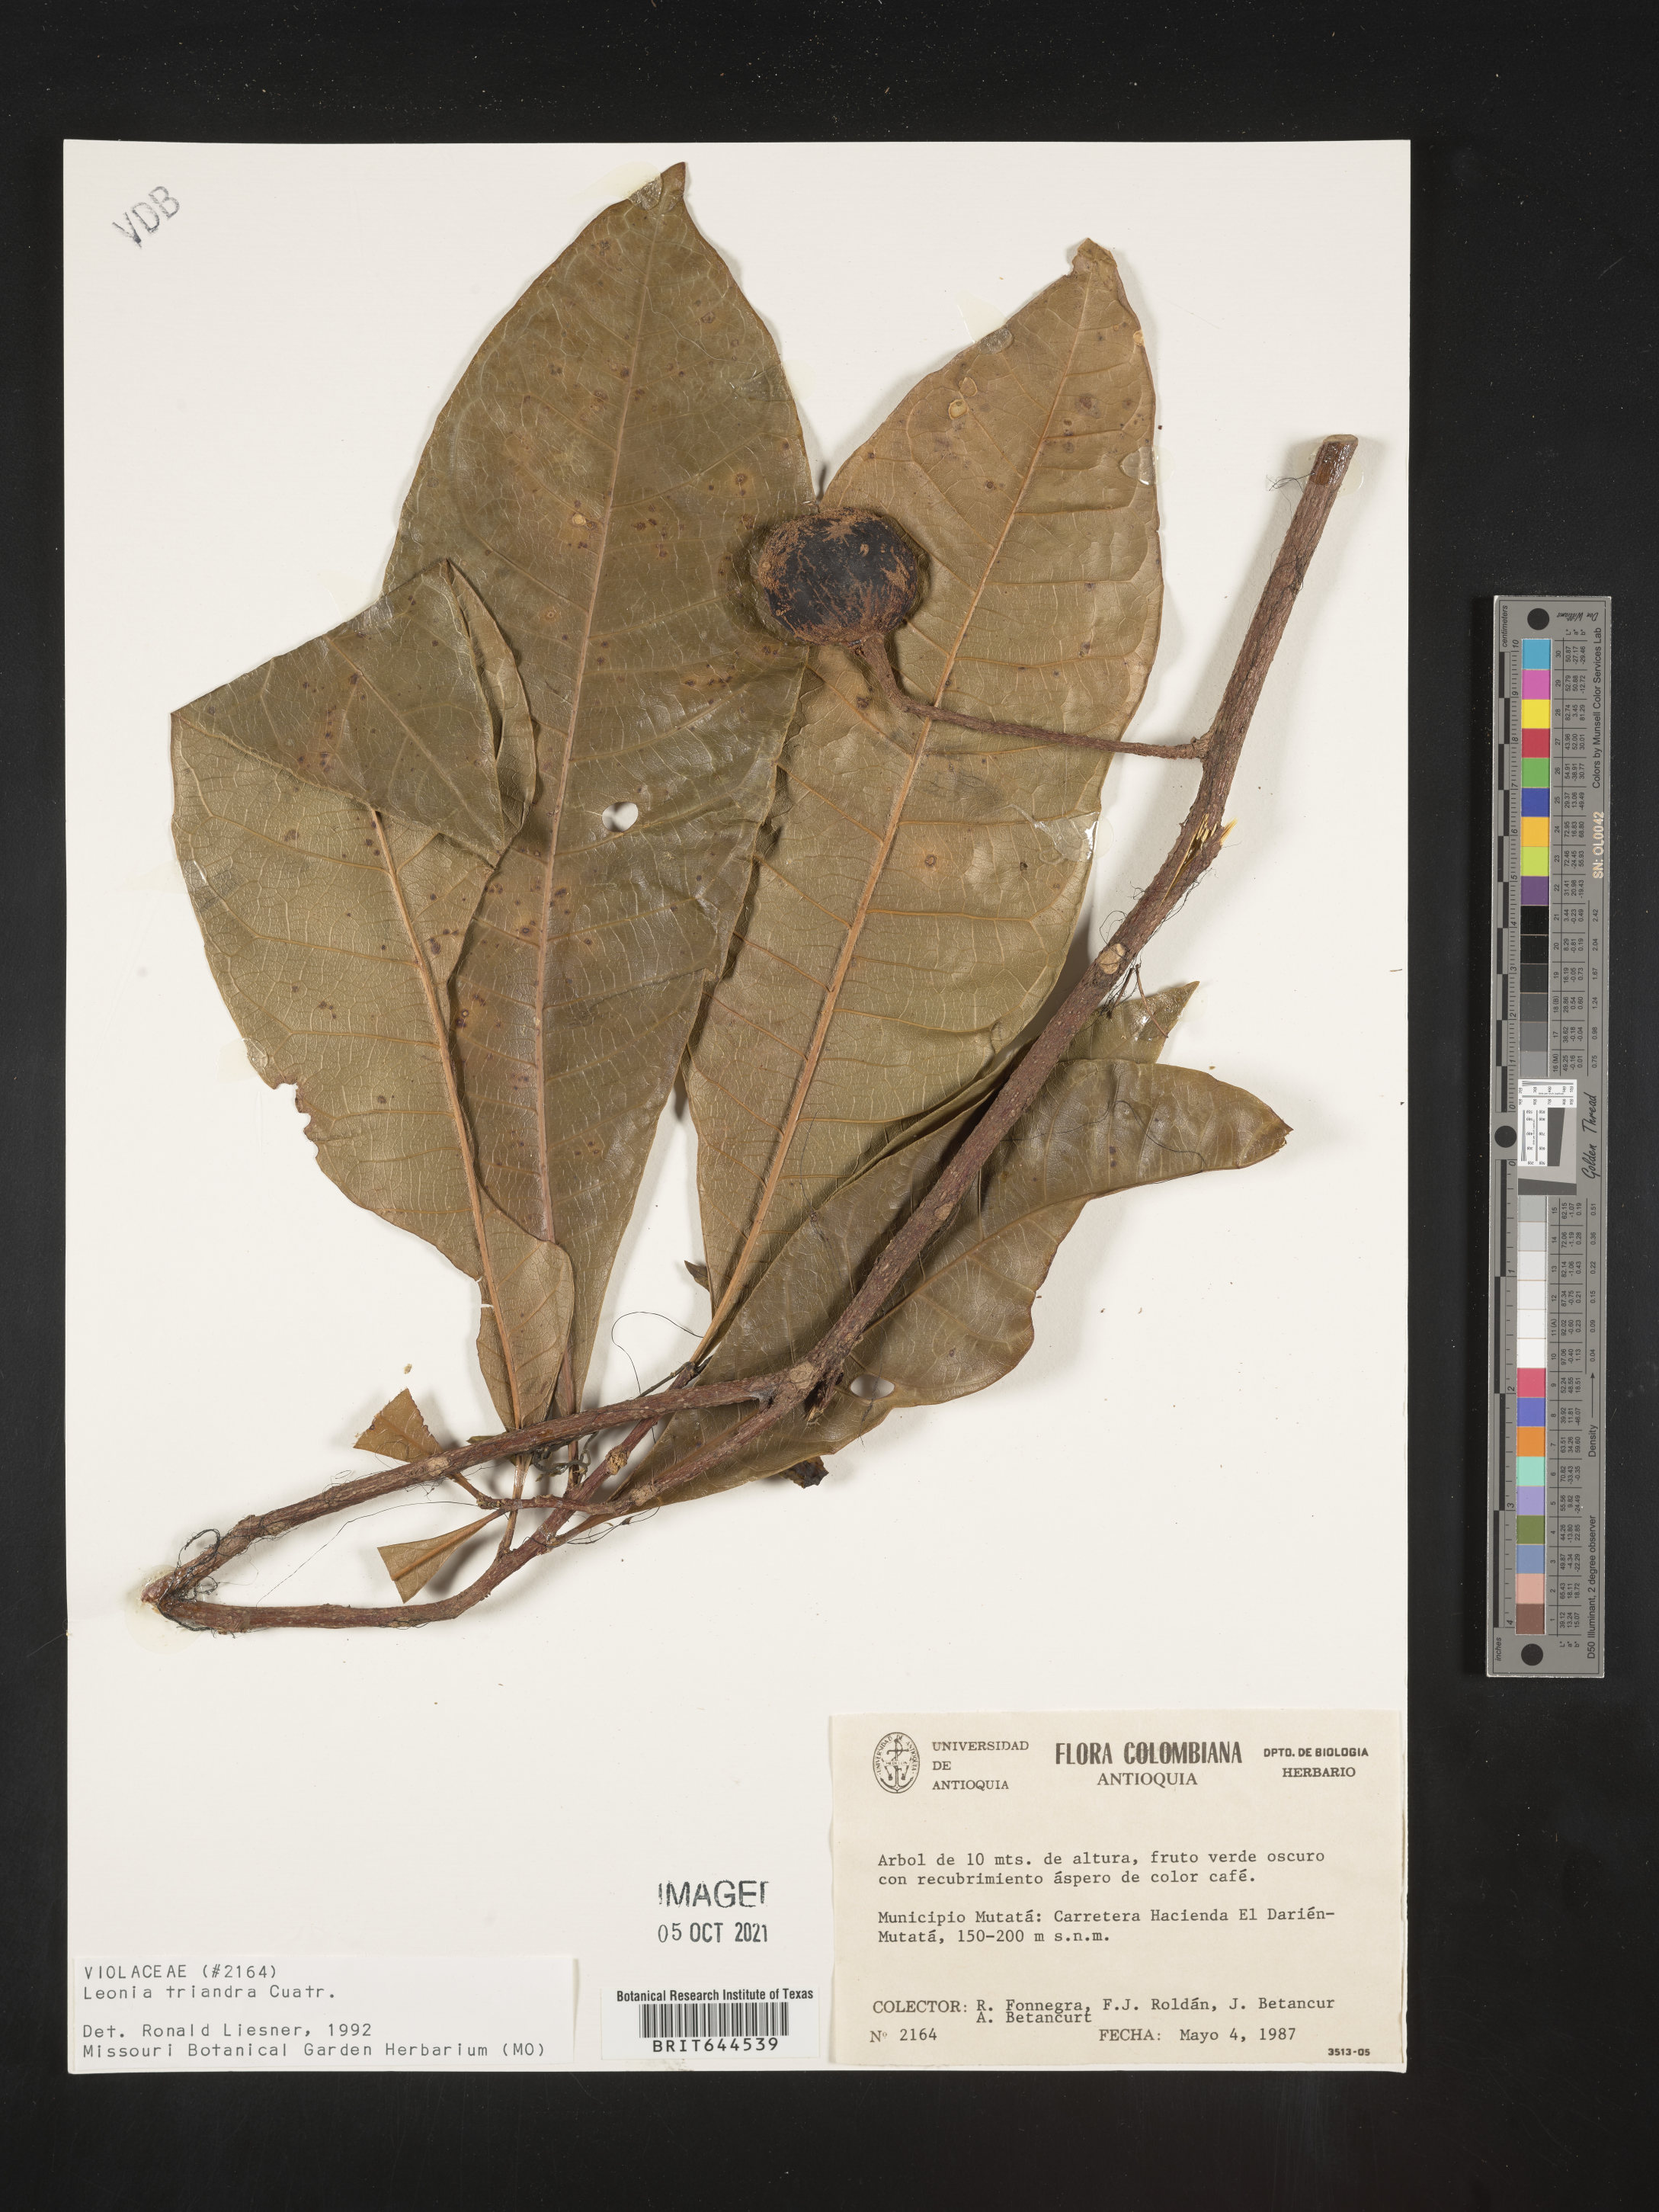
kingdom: Plantae
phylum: Tracheophyta
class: Magnoliopsida
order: Malpighiales
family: Violaceae
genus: Leonia
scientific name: Leonia
